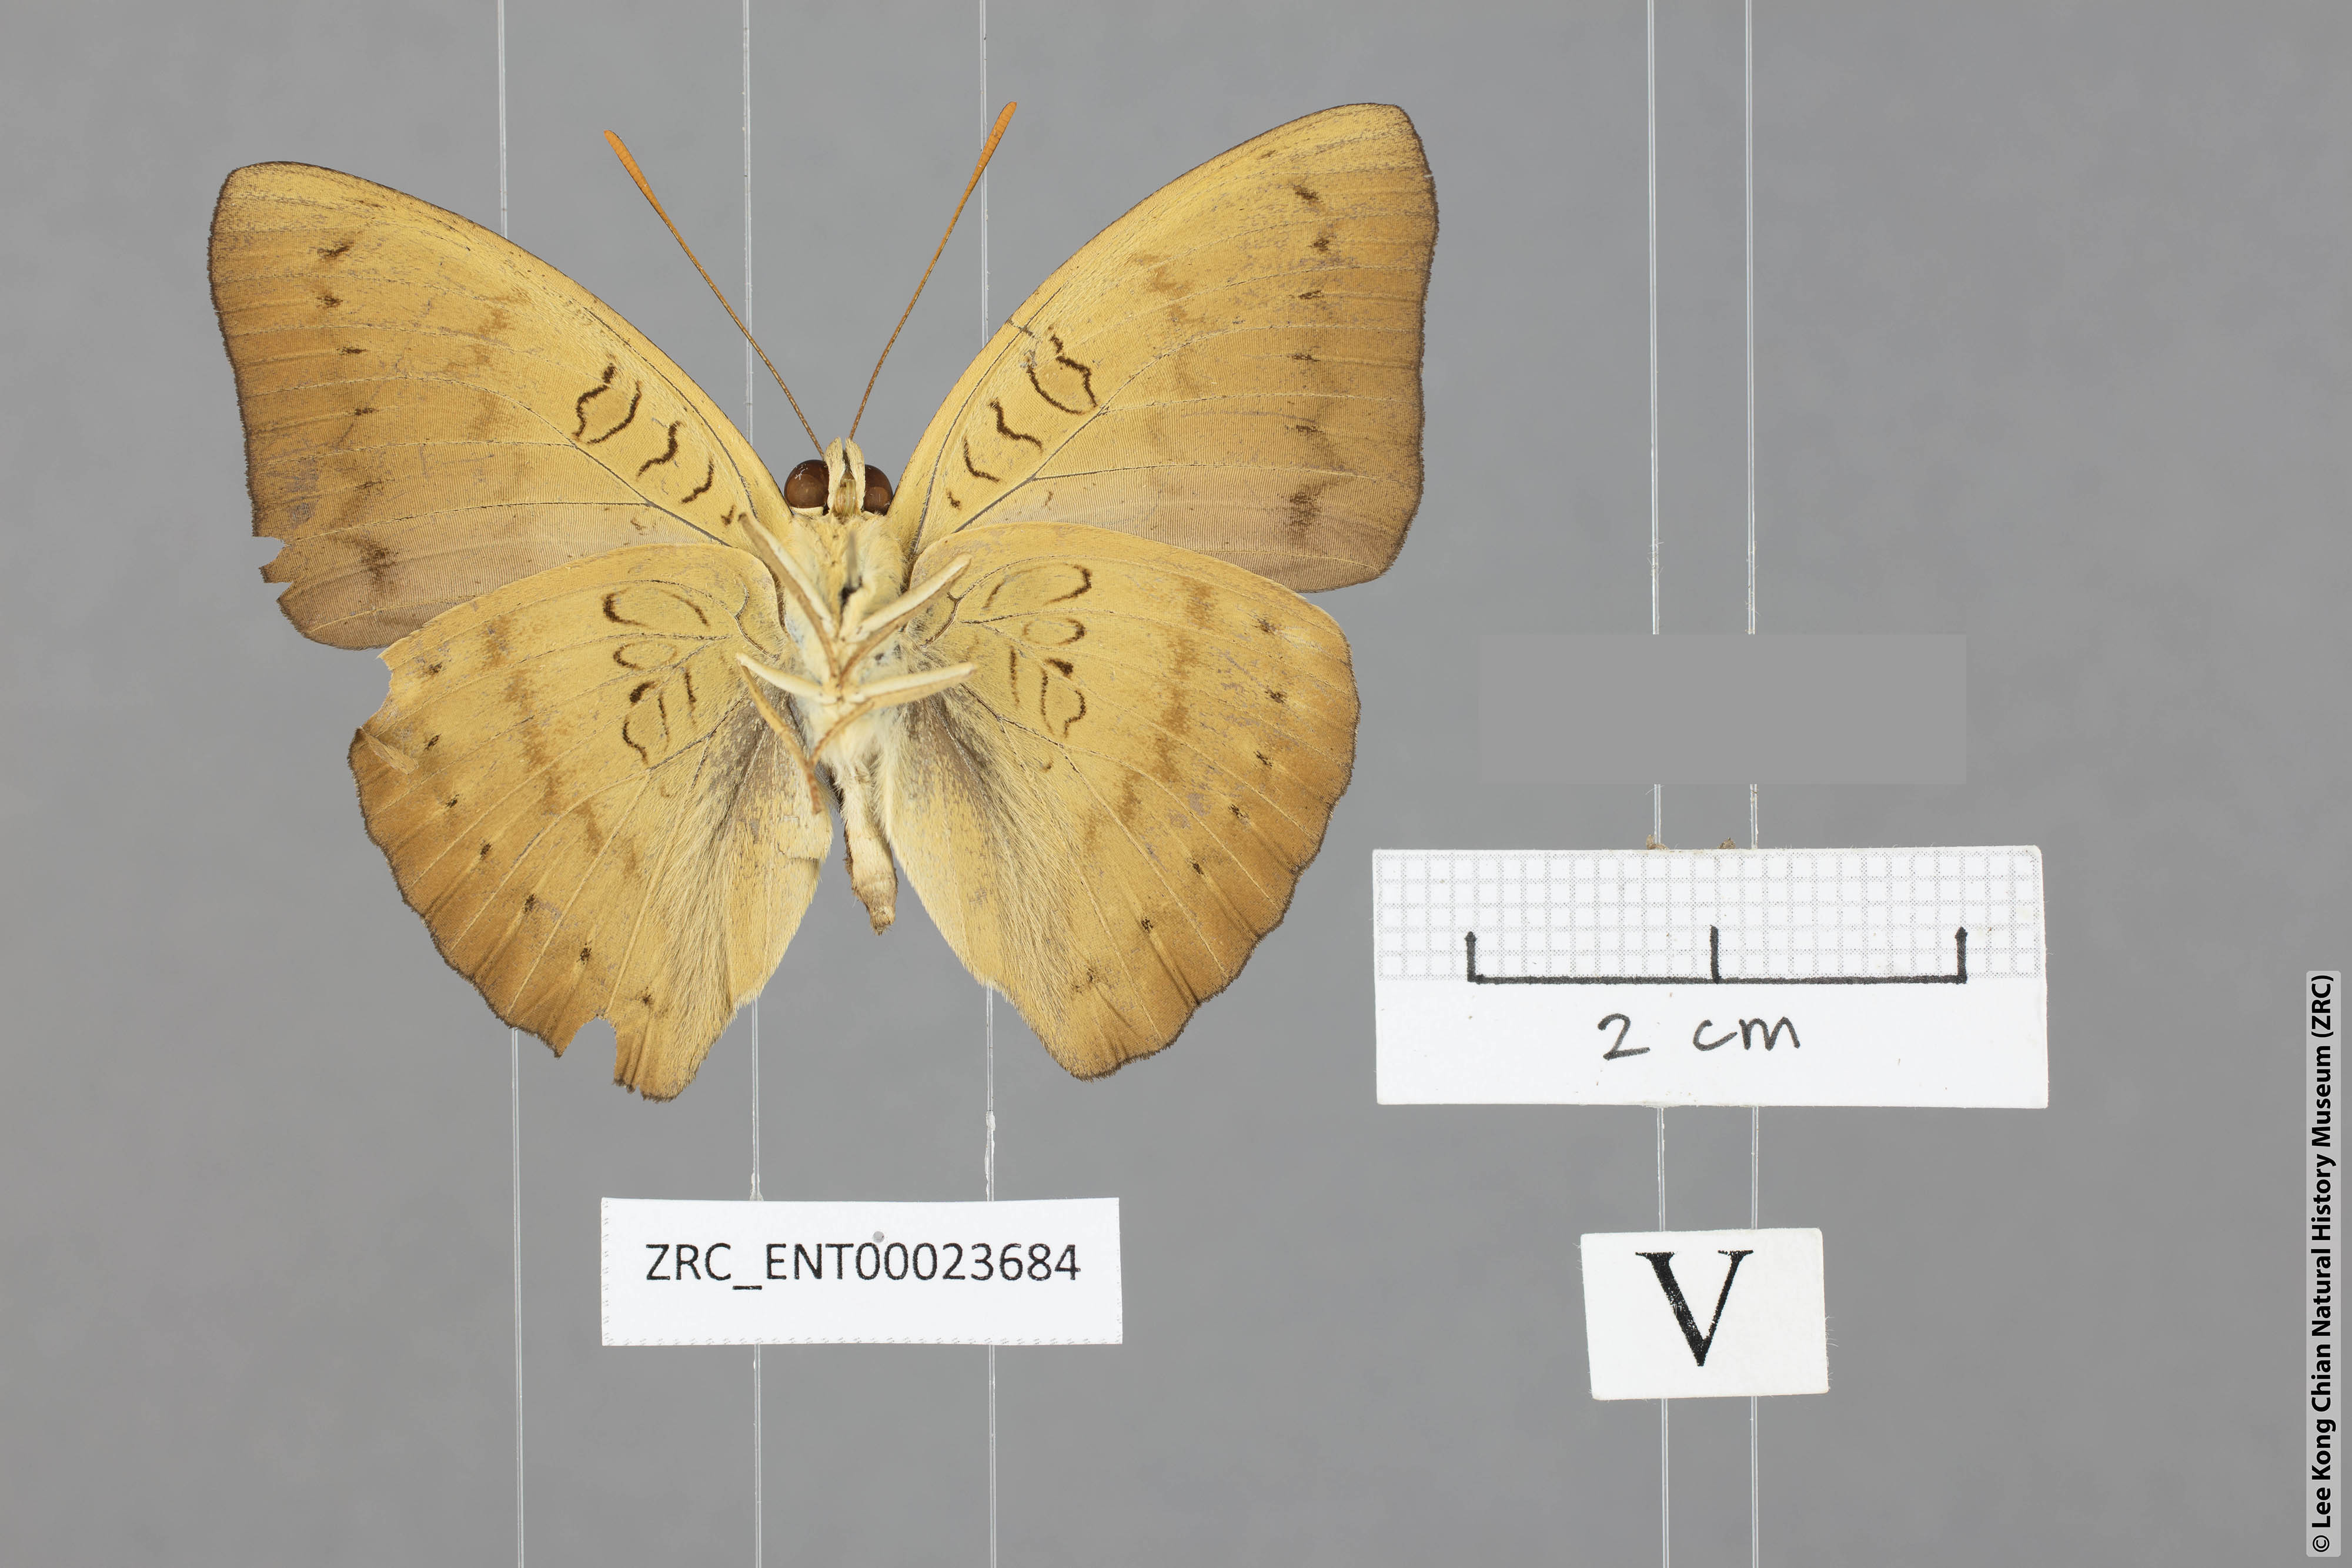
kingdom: Animalia
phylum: Arthropoda
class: Insecta
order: Lepidoptera
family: Nymphalidae
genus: Euthalia
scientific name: Euthalia kanda
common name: Yellow baron
